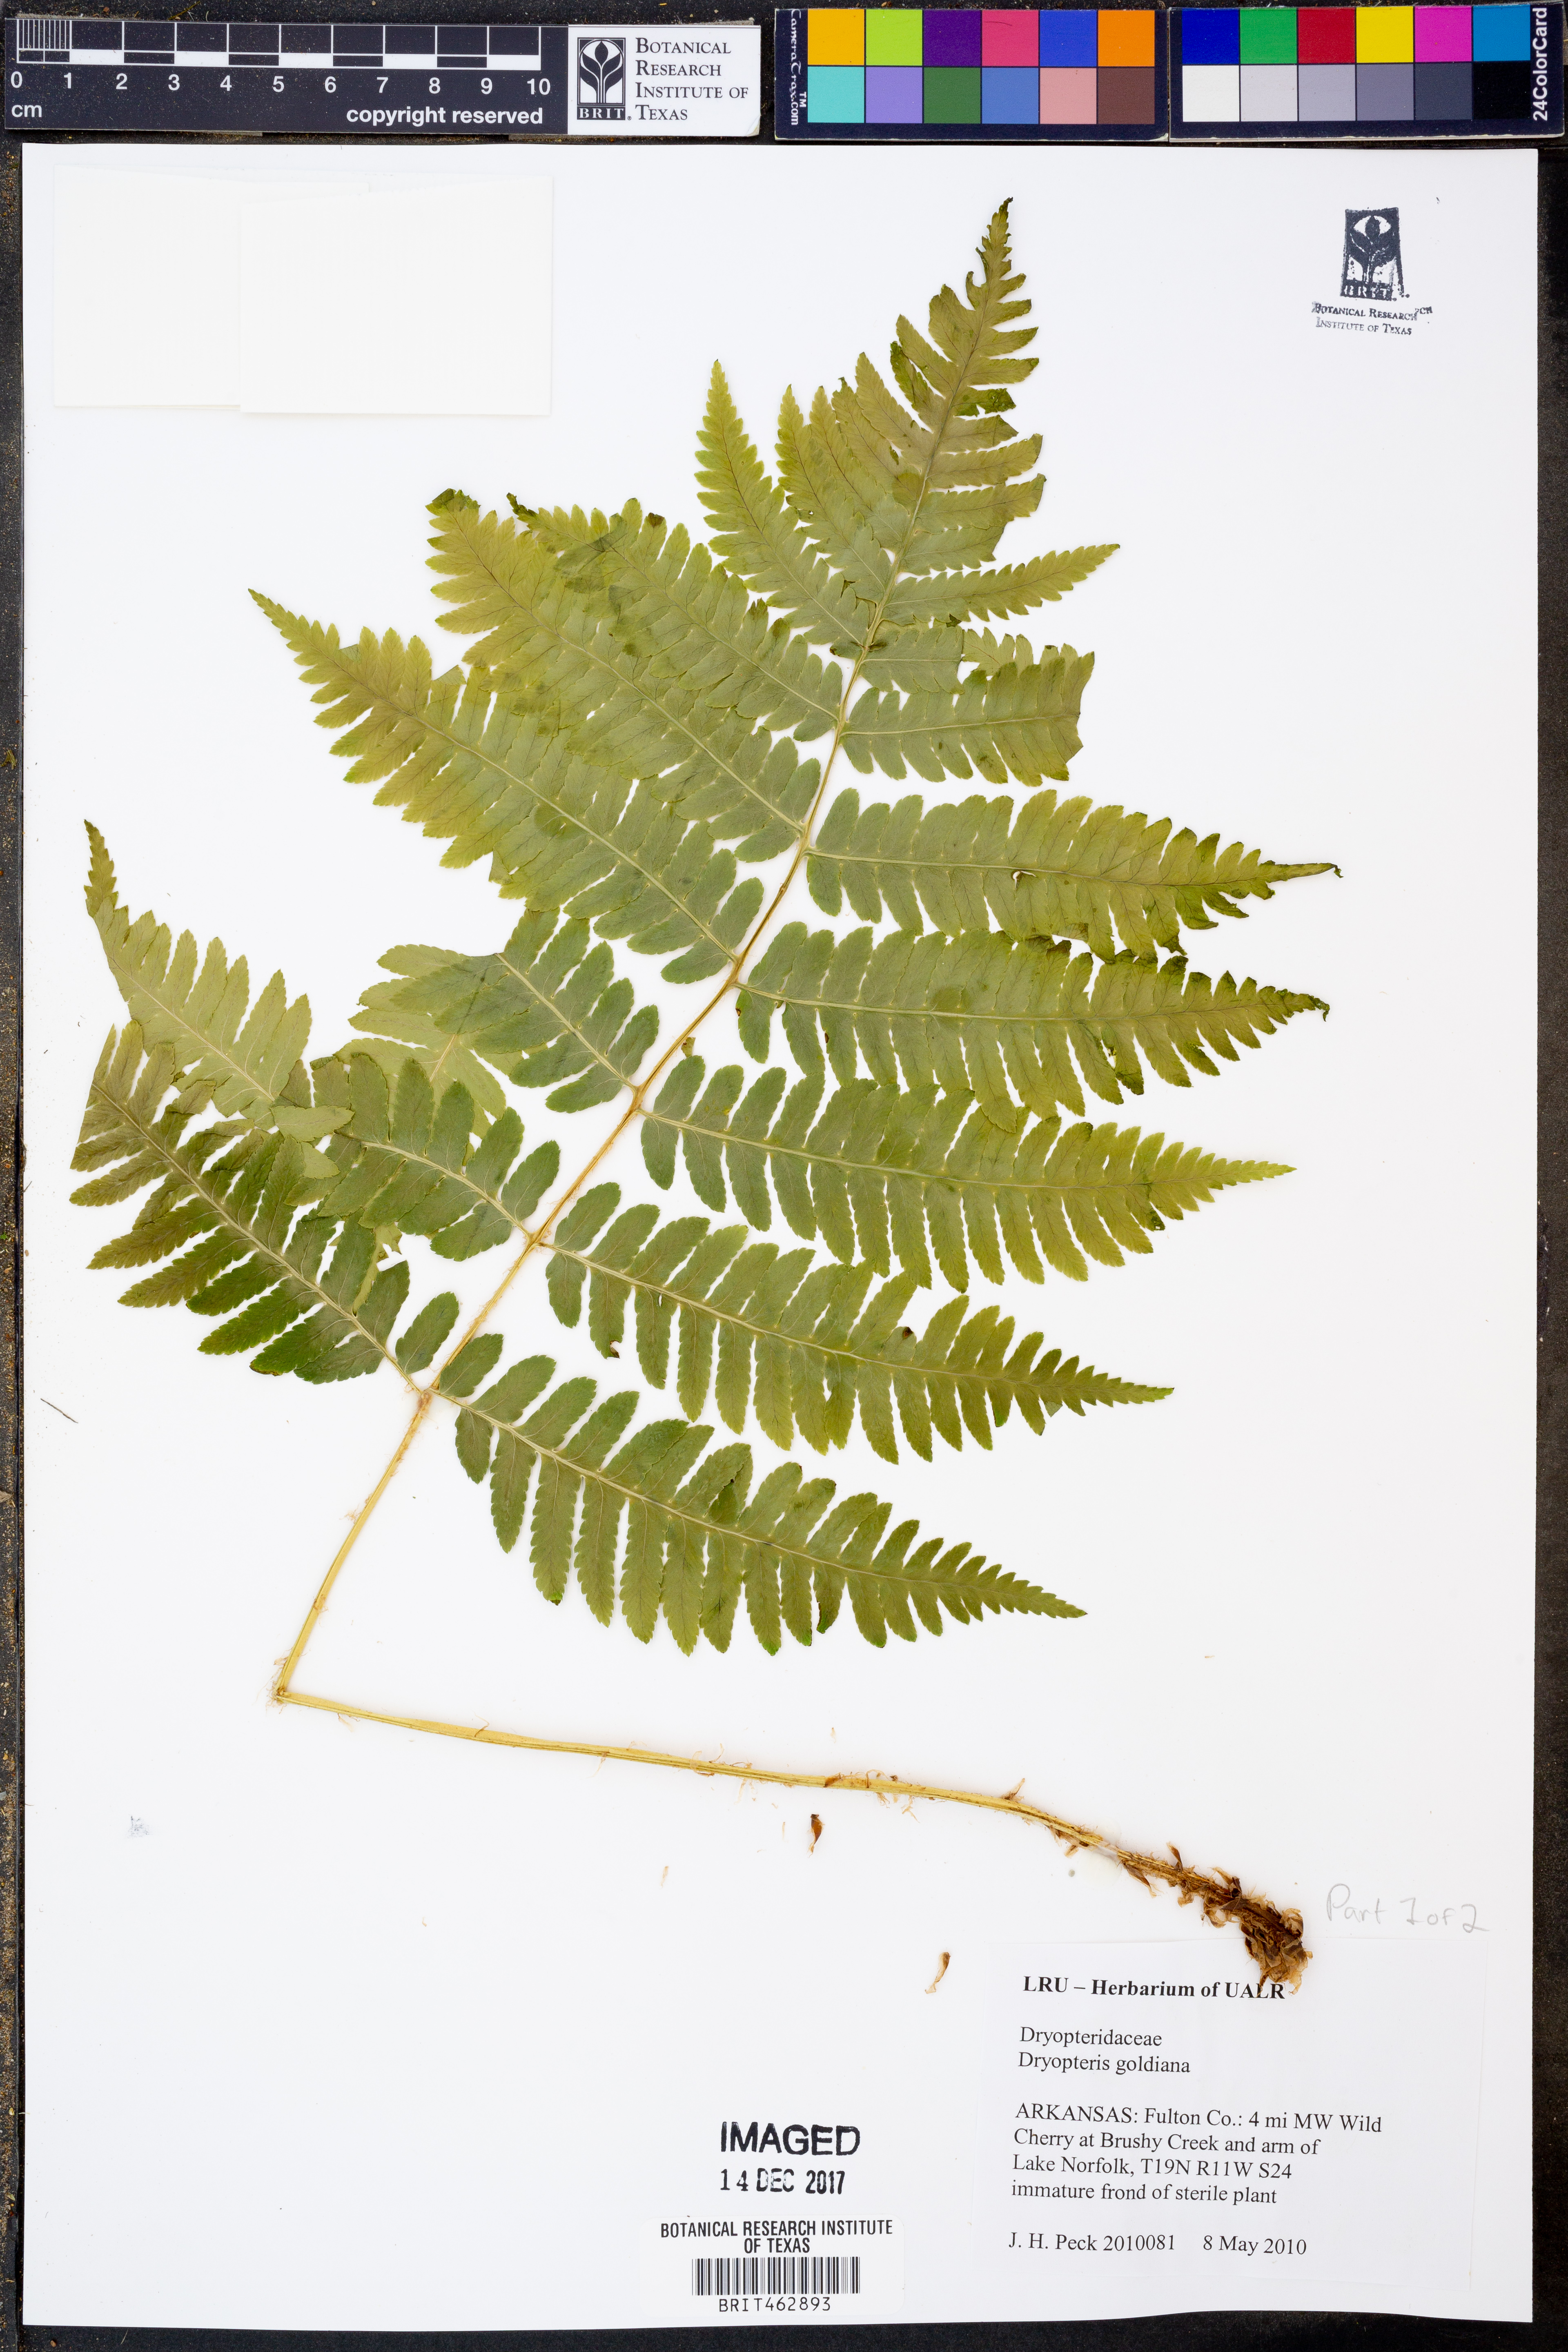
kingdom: Plantae
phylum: Tracheophyta
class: Polypodiopsida
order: Polypodiales
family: Dryopteridaceae
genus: Dryopteris
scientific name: Dryopteris goeldiana
